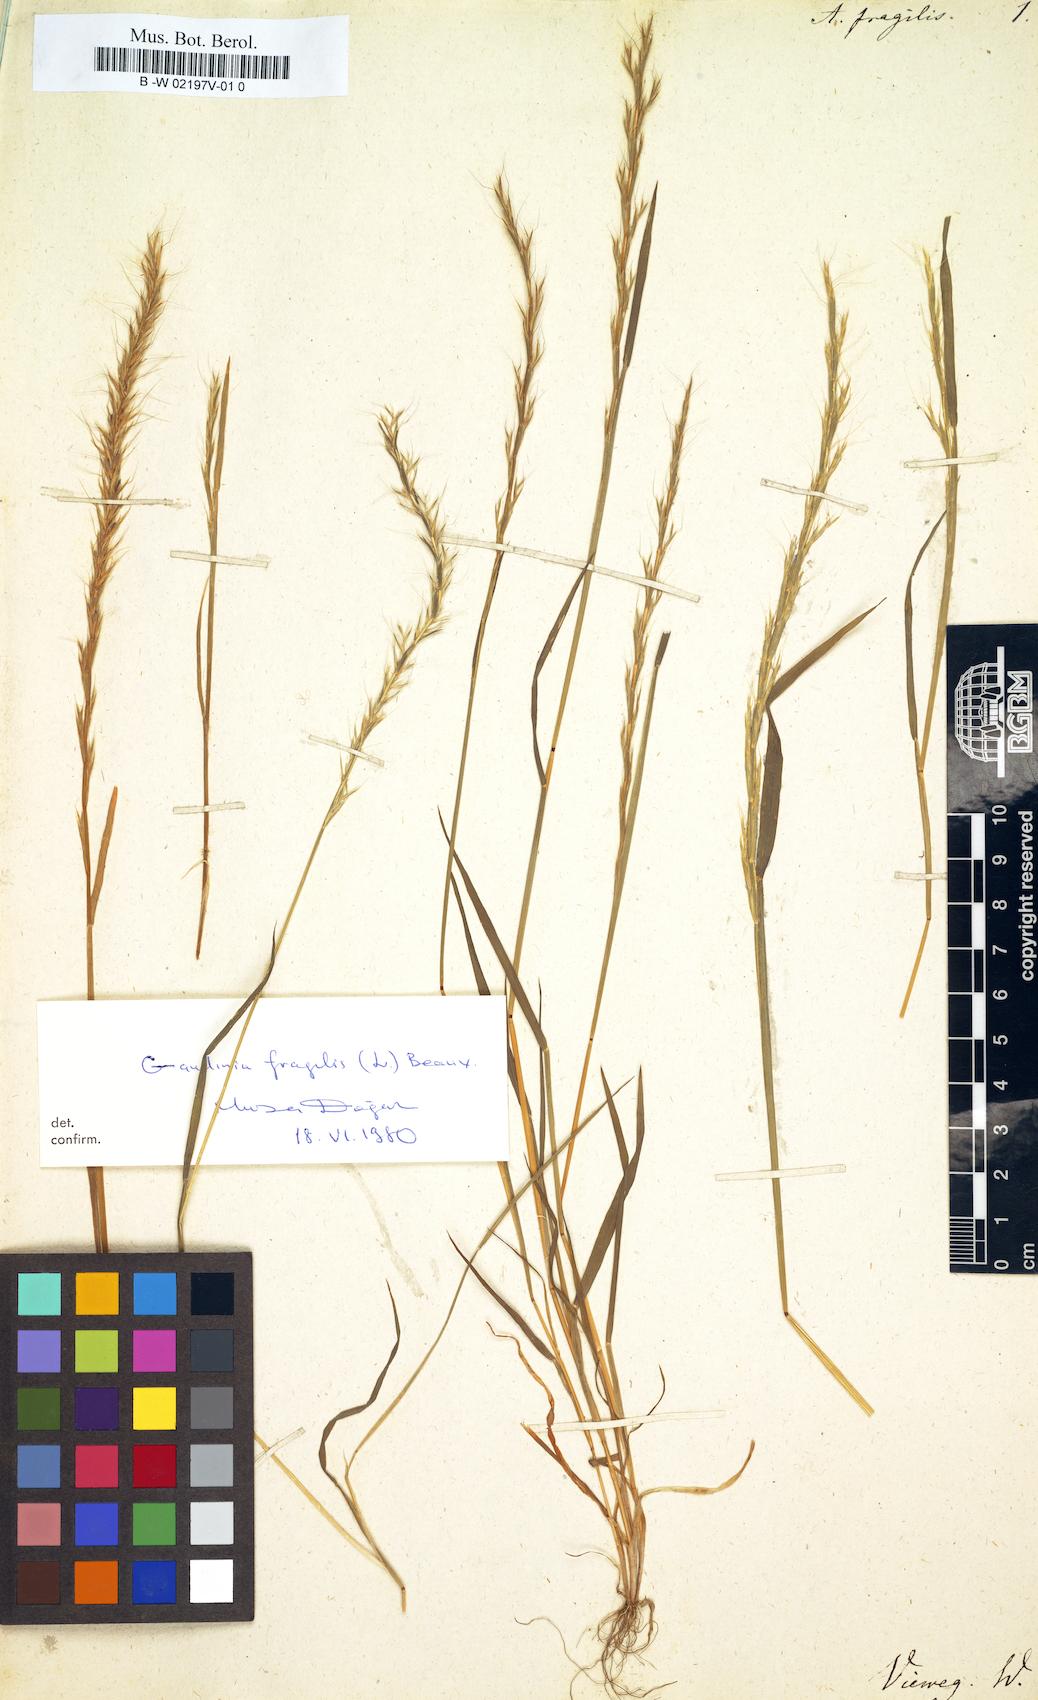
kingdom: Plantae
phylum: Tracheophyta
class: Liliopsida
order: Poales
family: Poaceae
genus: Gaudinia
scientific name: Gaudinia fragilis
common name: French oat-grass
